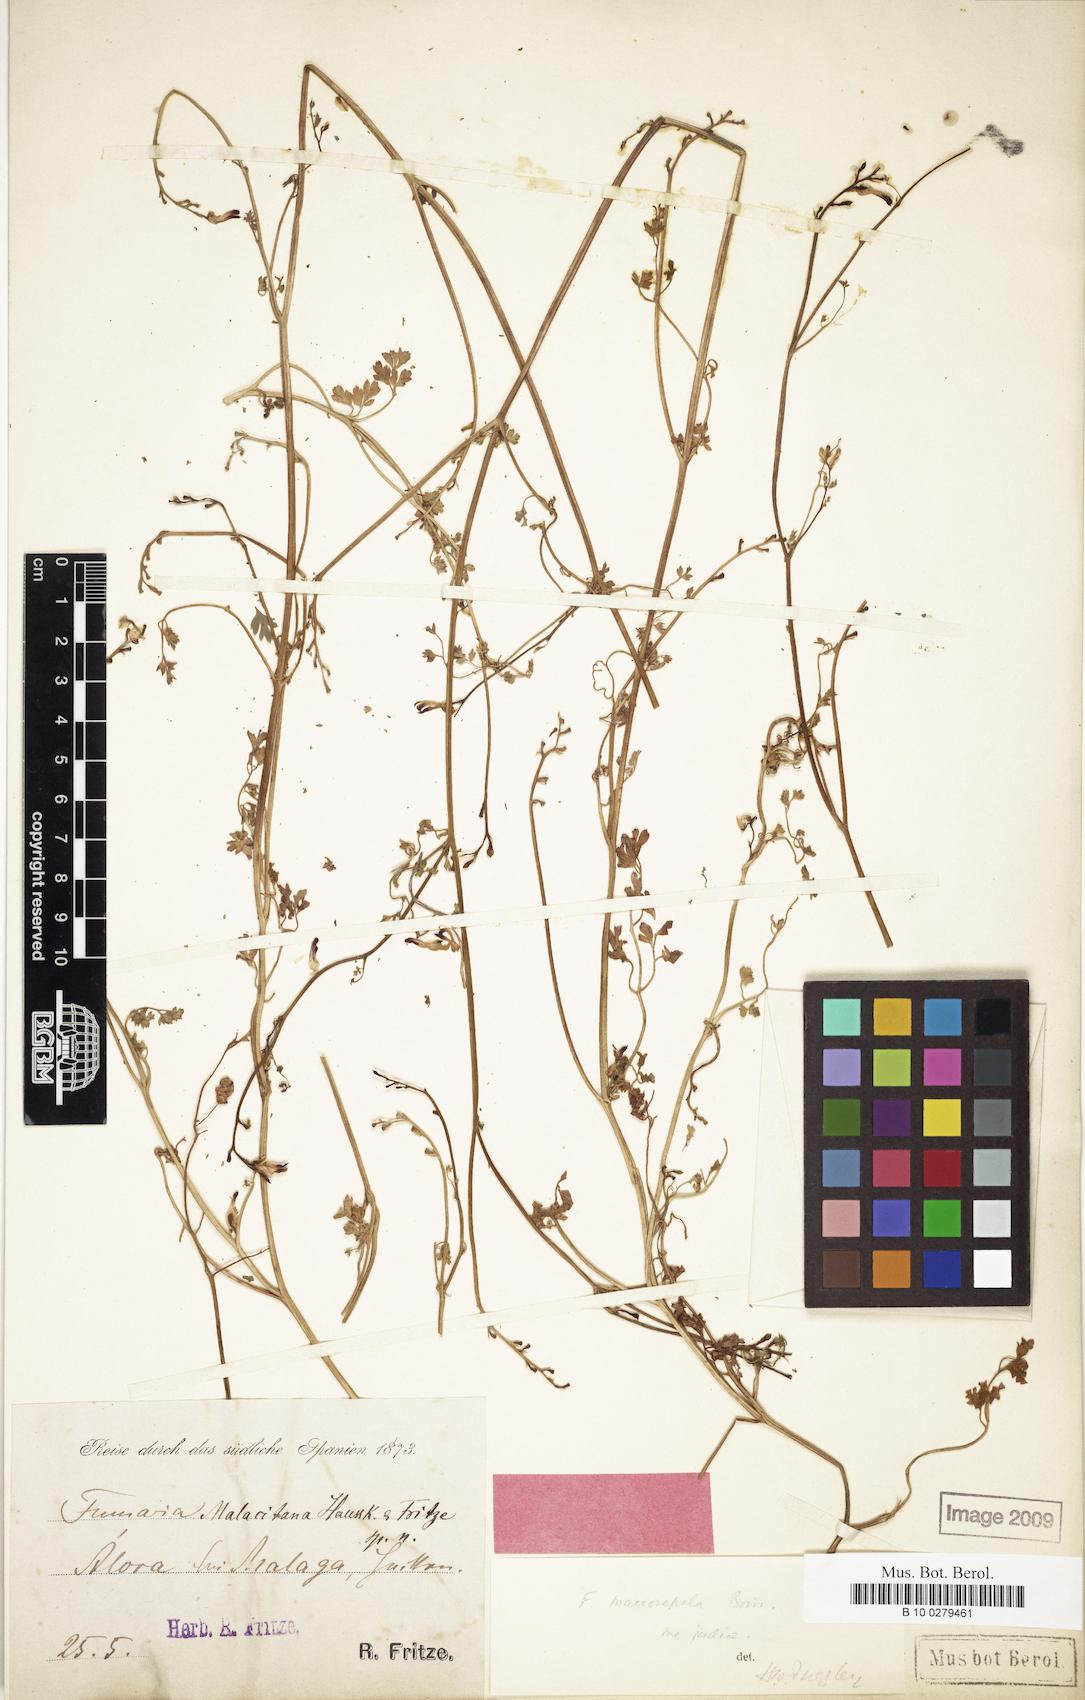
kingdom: Plantae
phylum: Tracheophyta
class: Magnoliopsida
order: Ranunculales
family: Papaveraceae
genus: Fumaria
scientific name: Fumaria macrosepala
